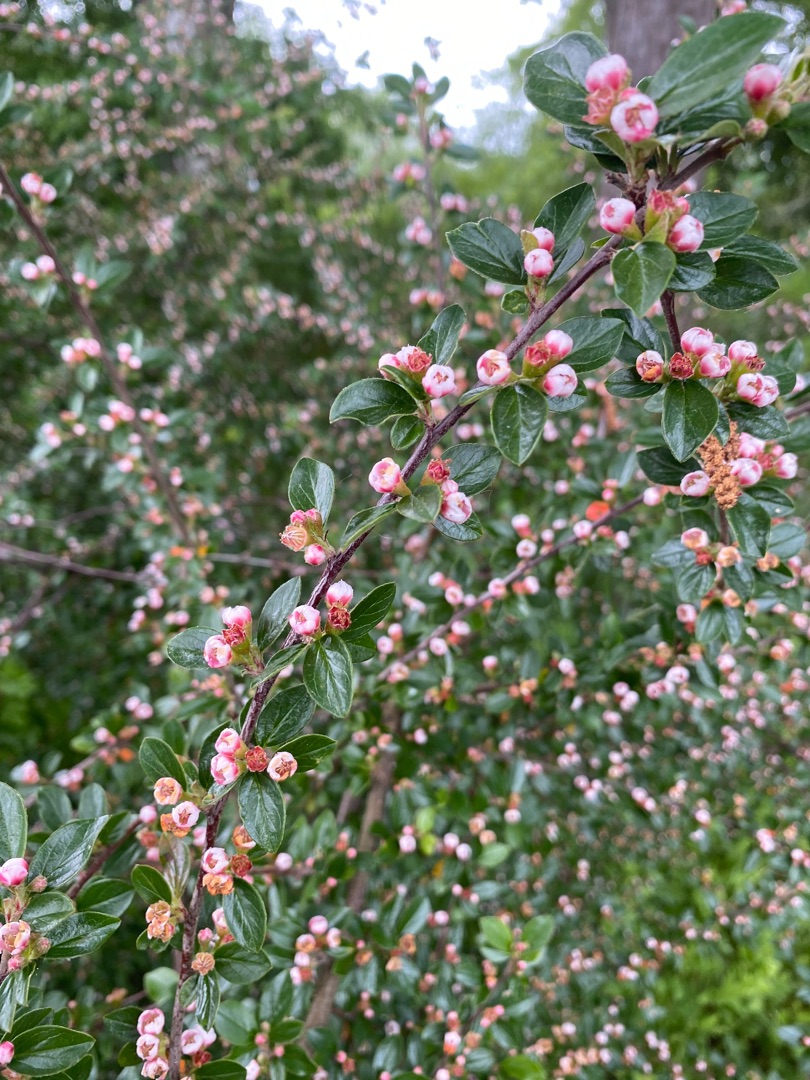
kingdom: Plantae
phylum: Tracheophyta
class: Magnoliopsida
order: Rosales
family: Rosaceae
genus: Cotoneaster
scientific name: Cotoneaster divaricatus
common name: Vifte-dværgmispel
